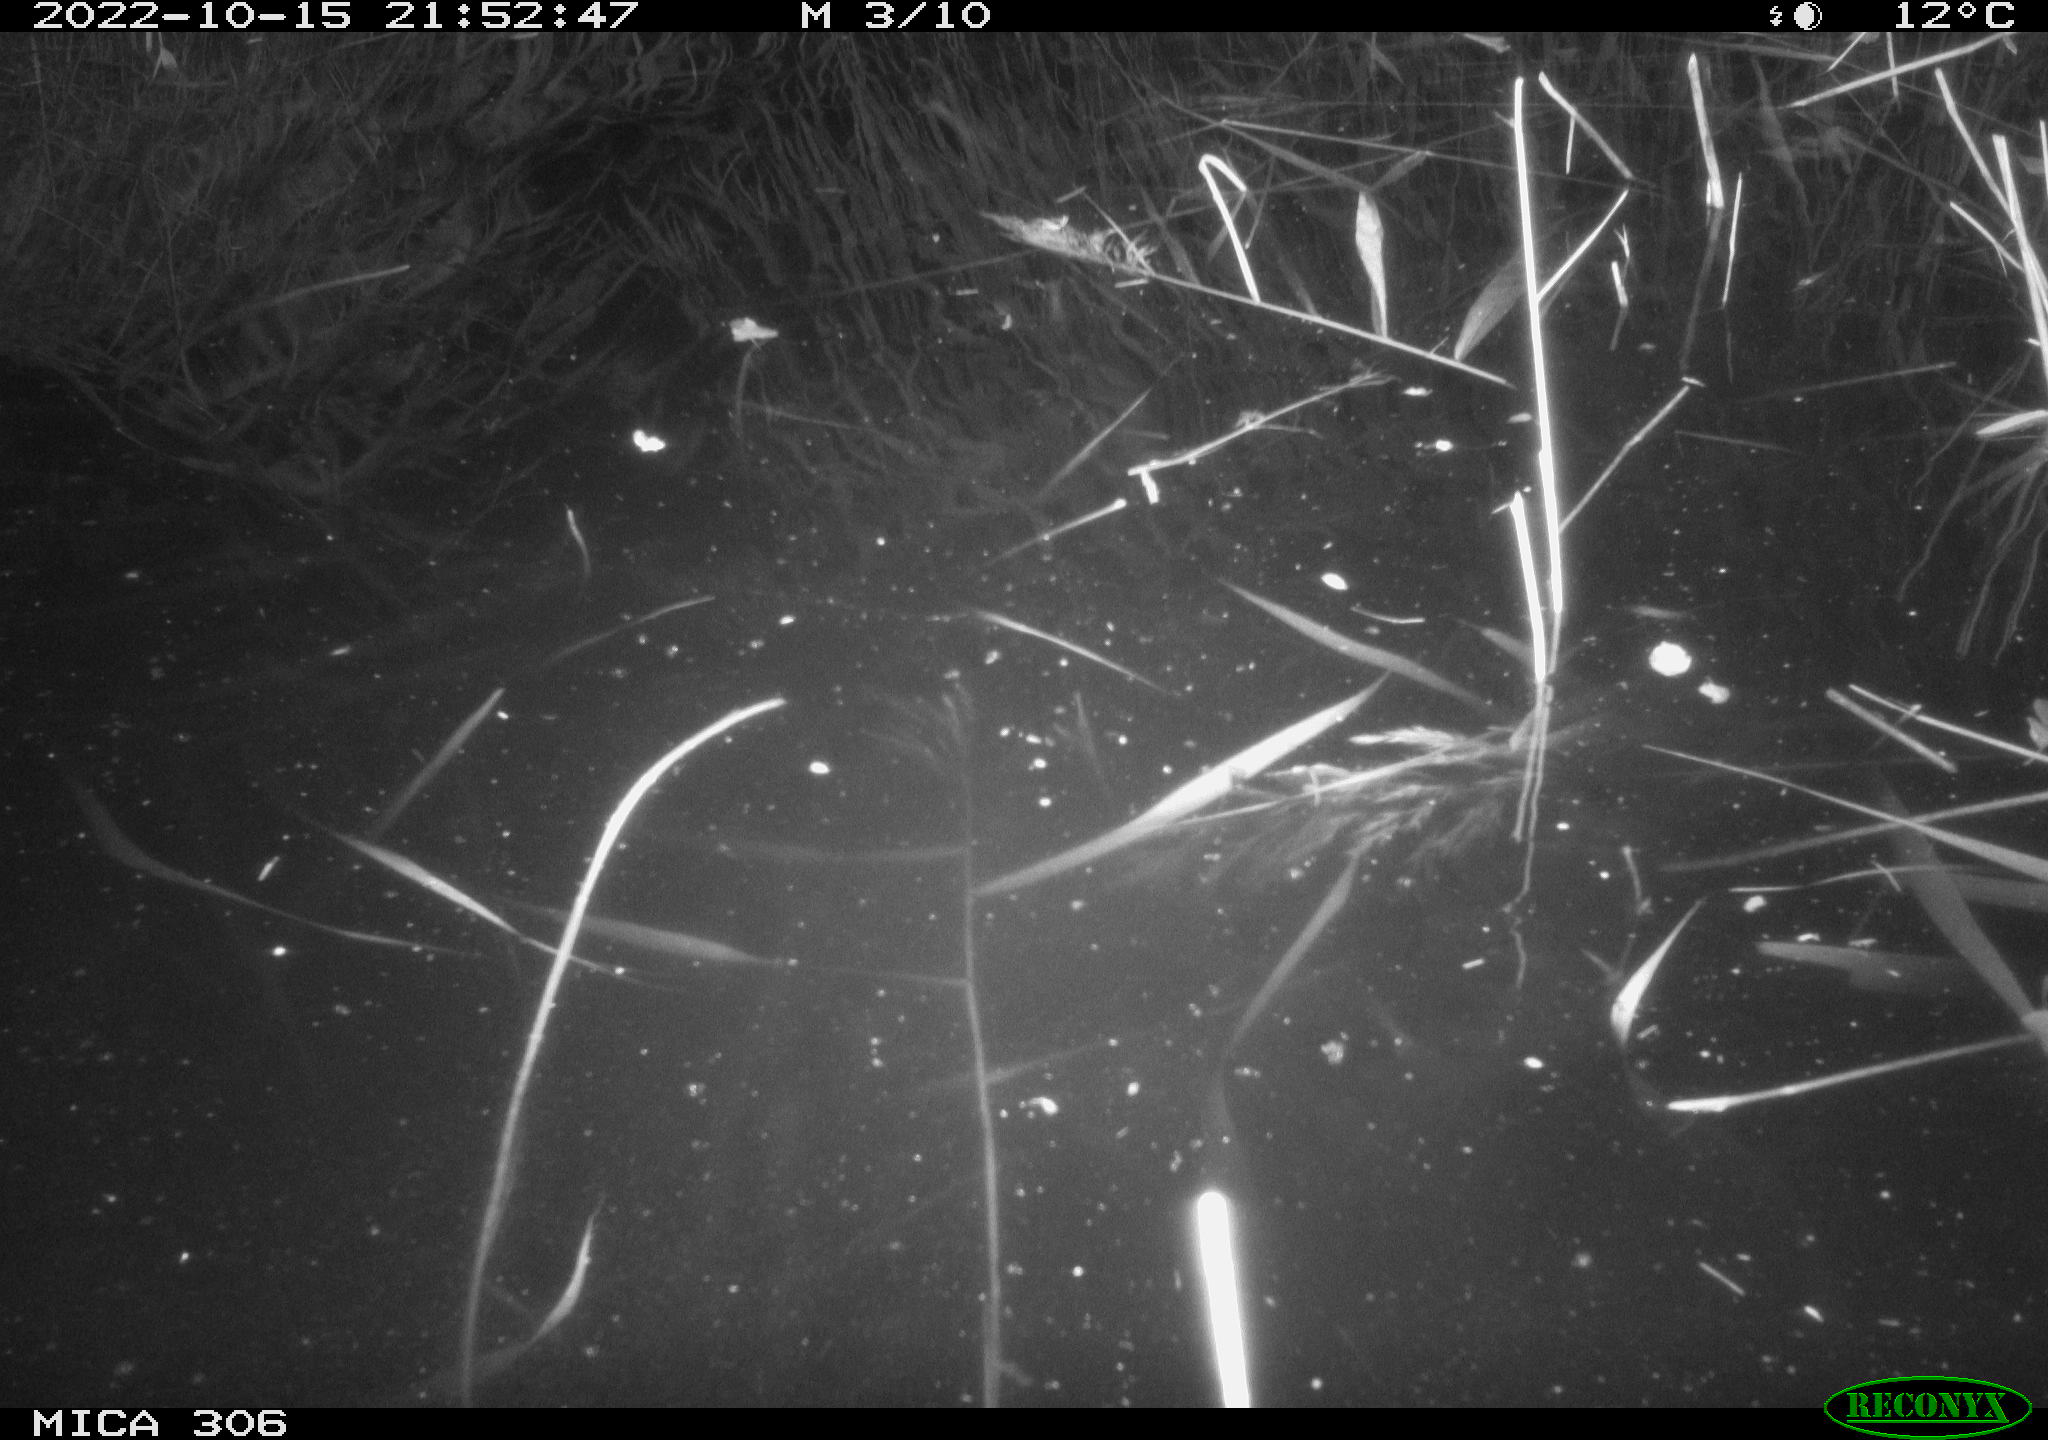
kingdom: Animalia
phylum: Chordata
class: Mammalia
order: Rodentia
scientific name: Rodentia
